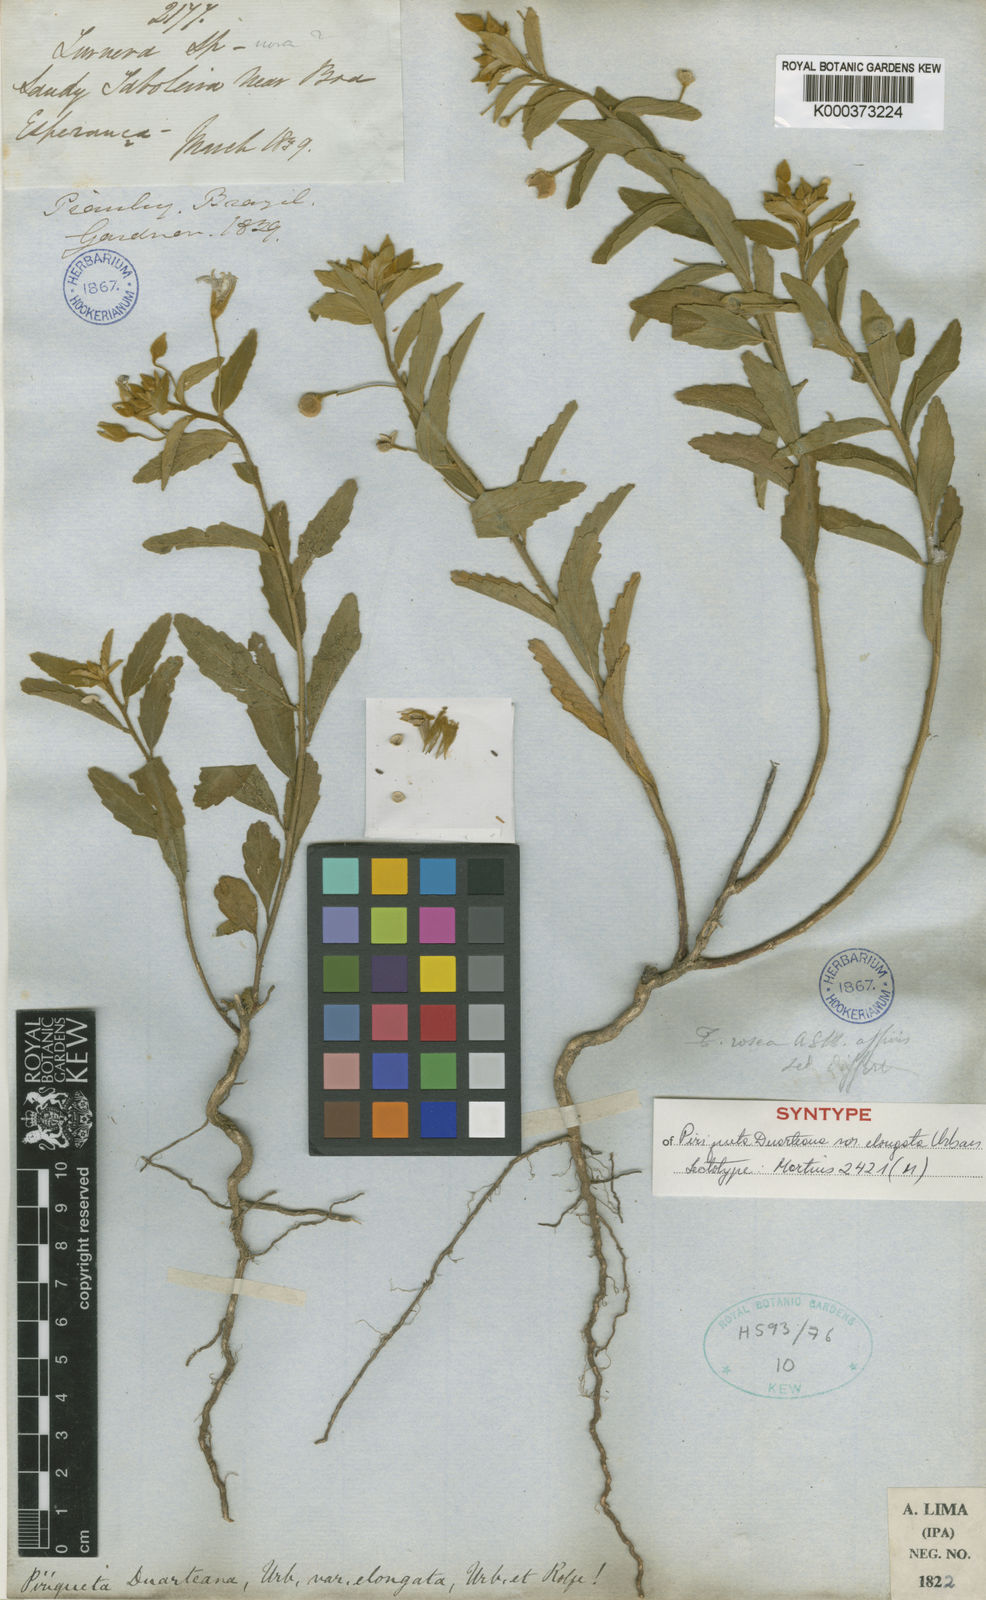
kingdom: Plantae
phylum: Tracheophyta
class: Magnoliopsida
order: Malpighiales
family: Turneraceae
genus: Piriqueta
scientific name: Piriqueta guianensis
